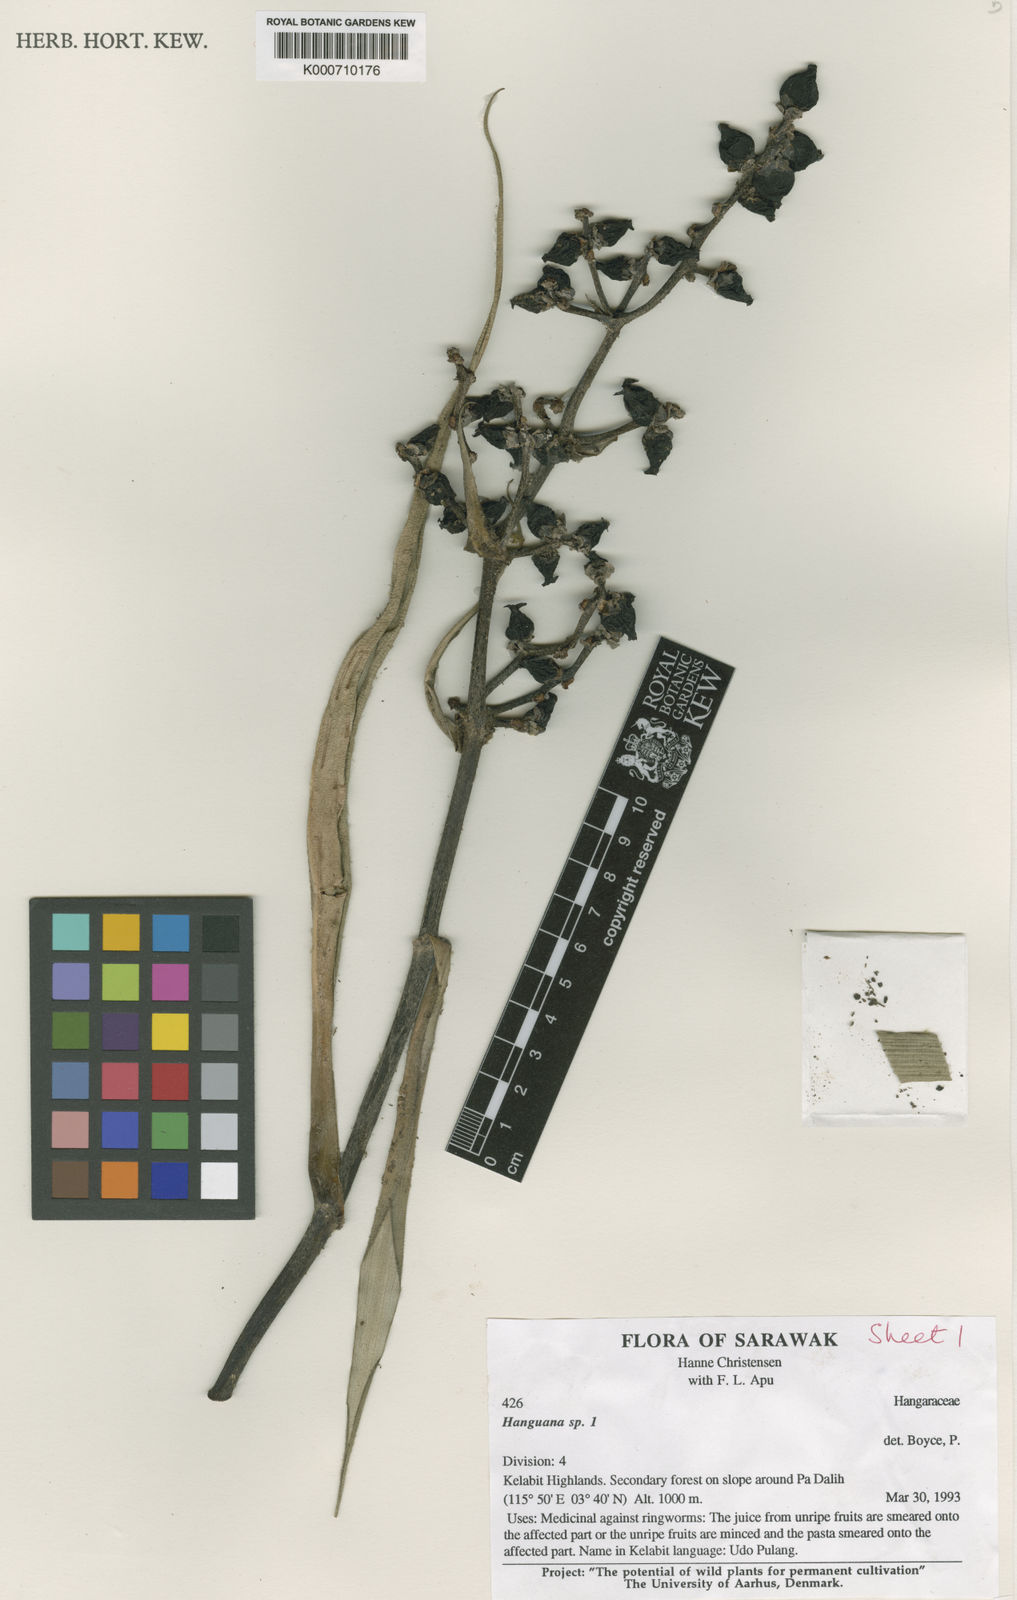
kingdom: Plantae
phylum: Tracheophyta
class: Liliopsida
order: Commelinales
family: Hanguanaceae
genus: Hanguana
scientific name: Hanguana
